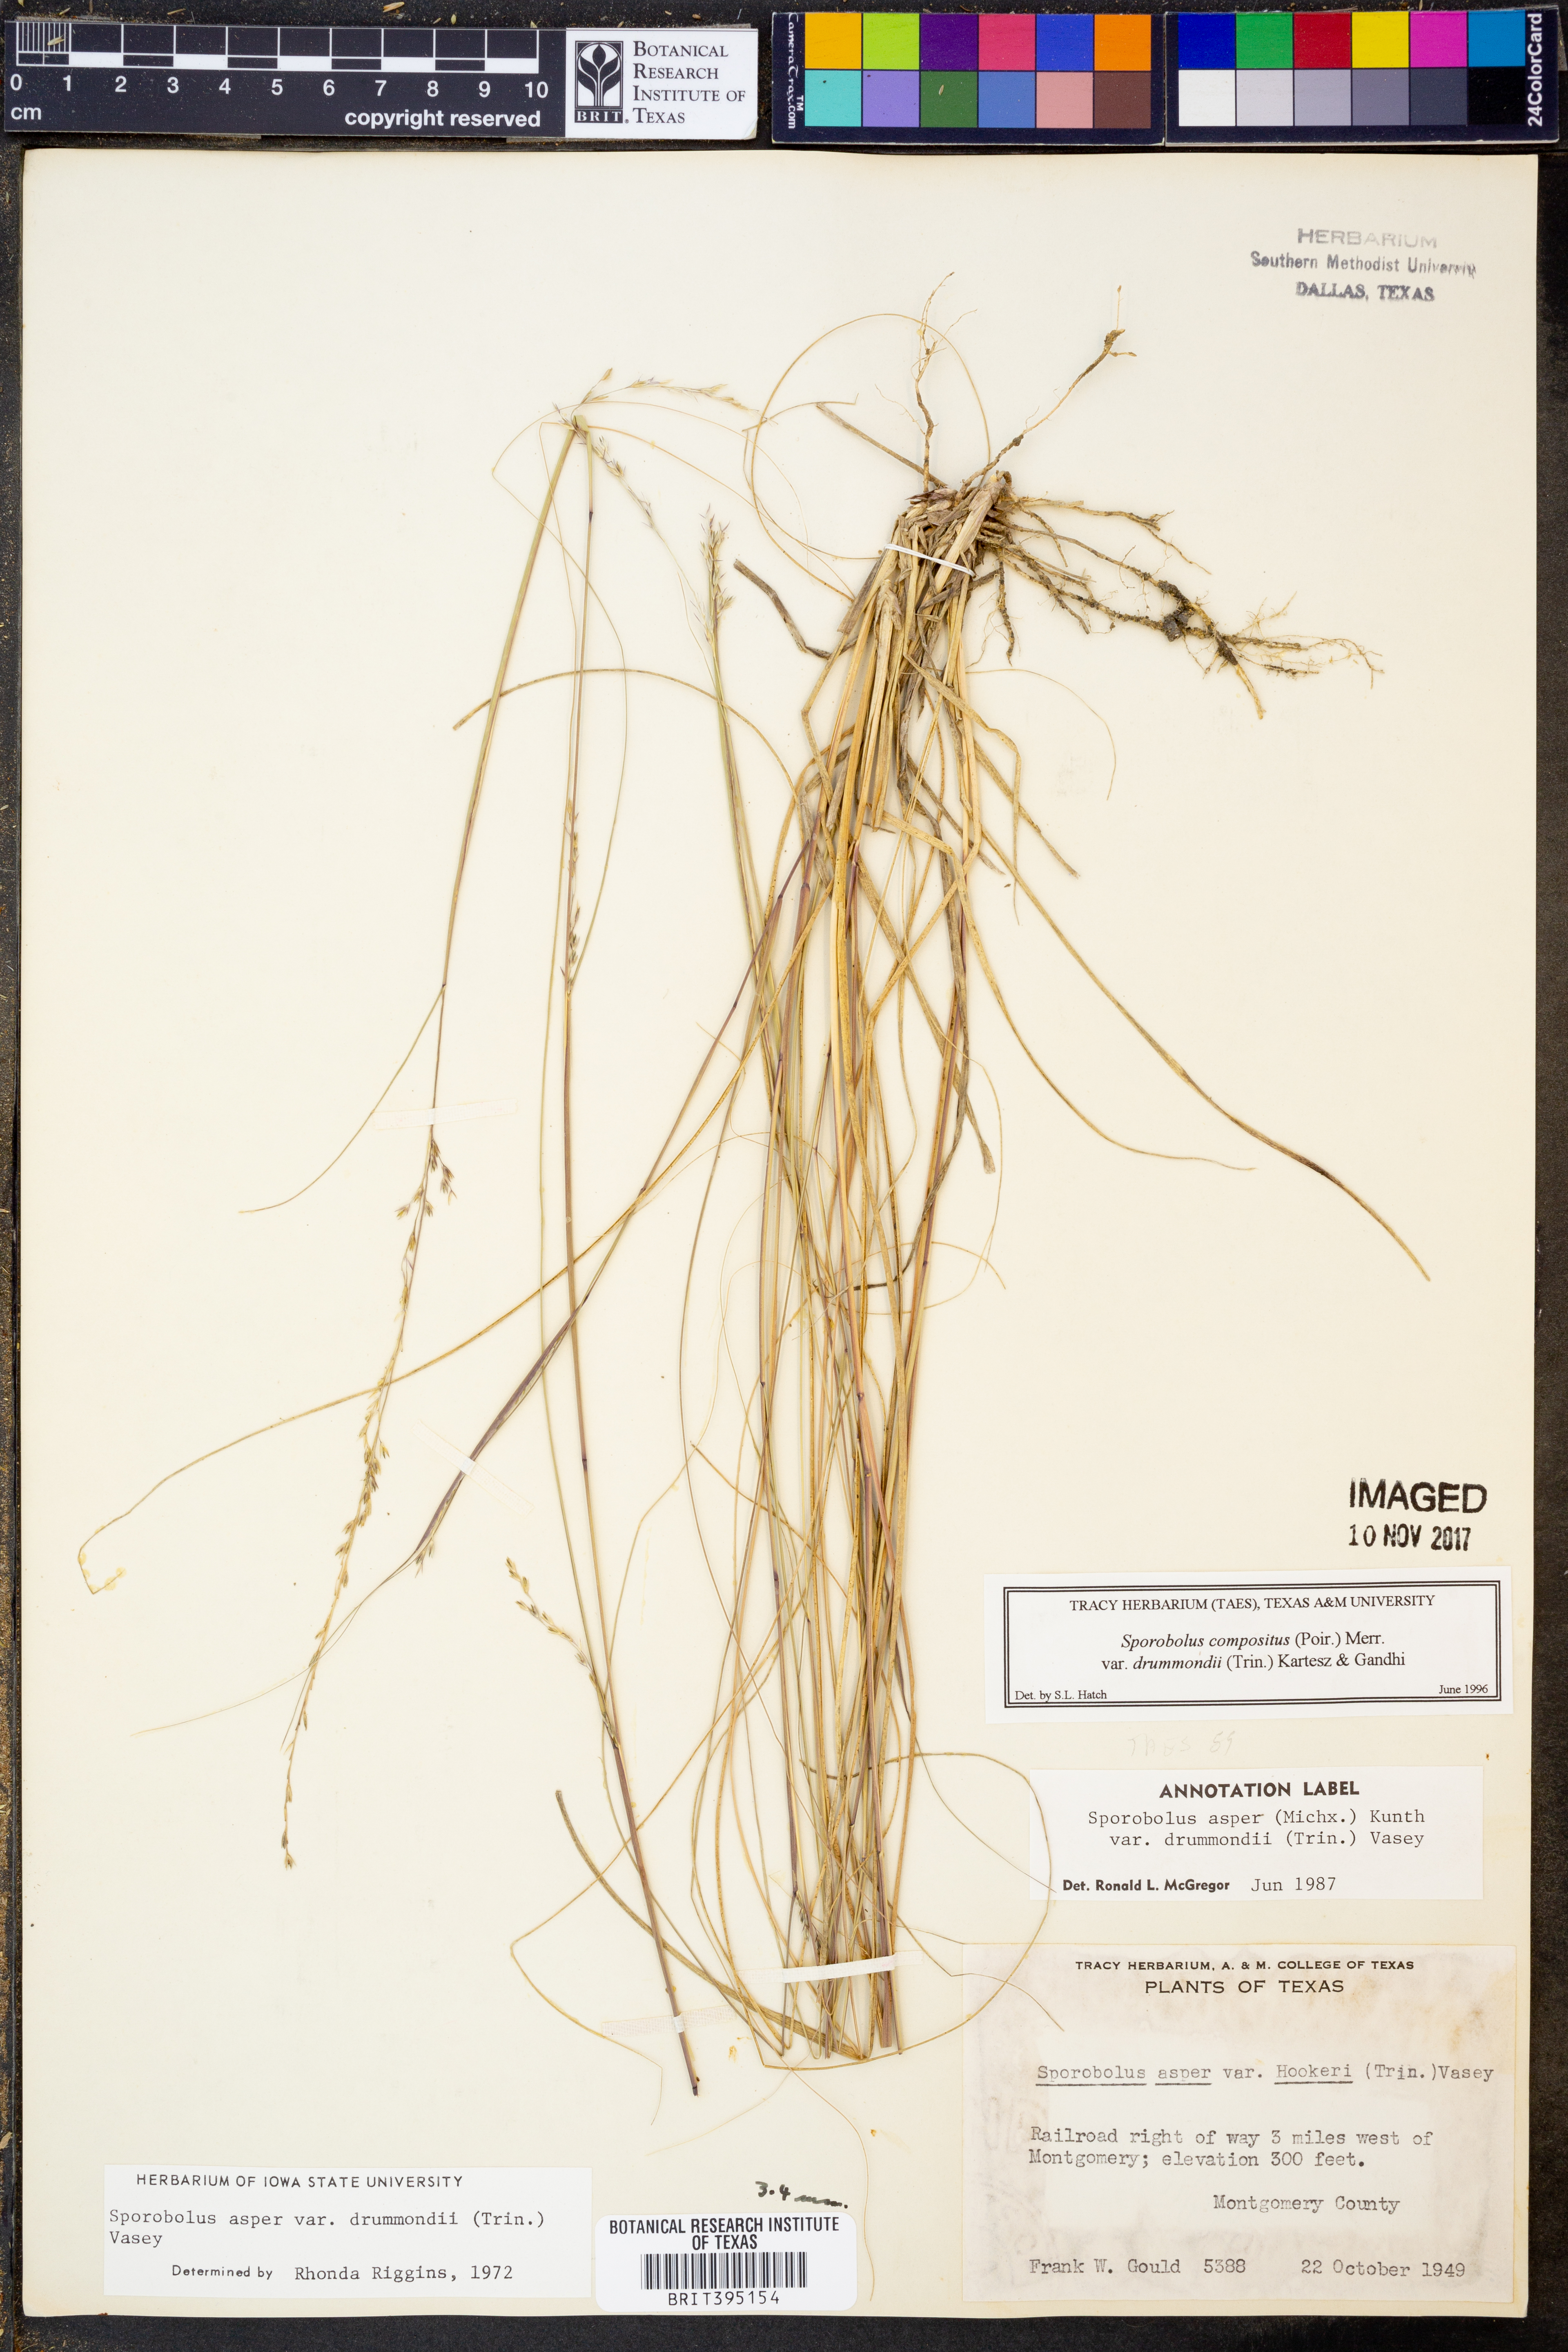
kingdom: Plantae
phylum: Tracheophyta
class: Liliopsida
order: Poales
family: Poaceae
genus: Sporobolus
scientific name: Sporobolus compositus
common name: Rough dropseed
